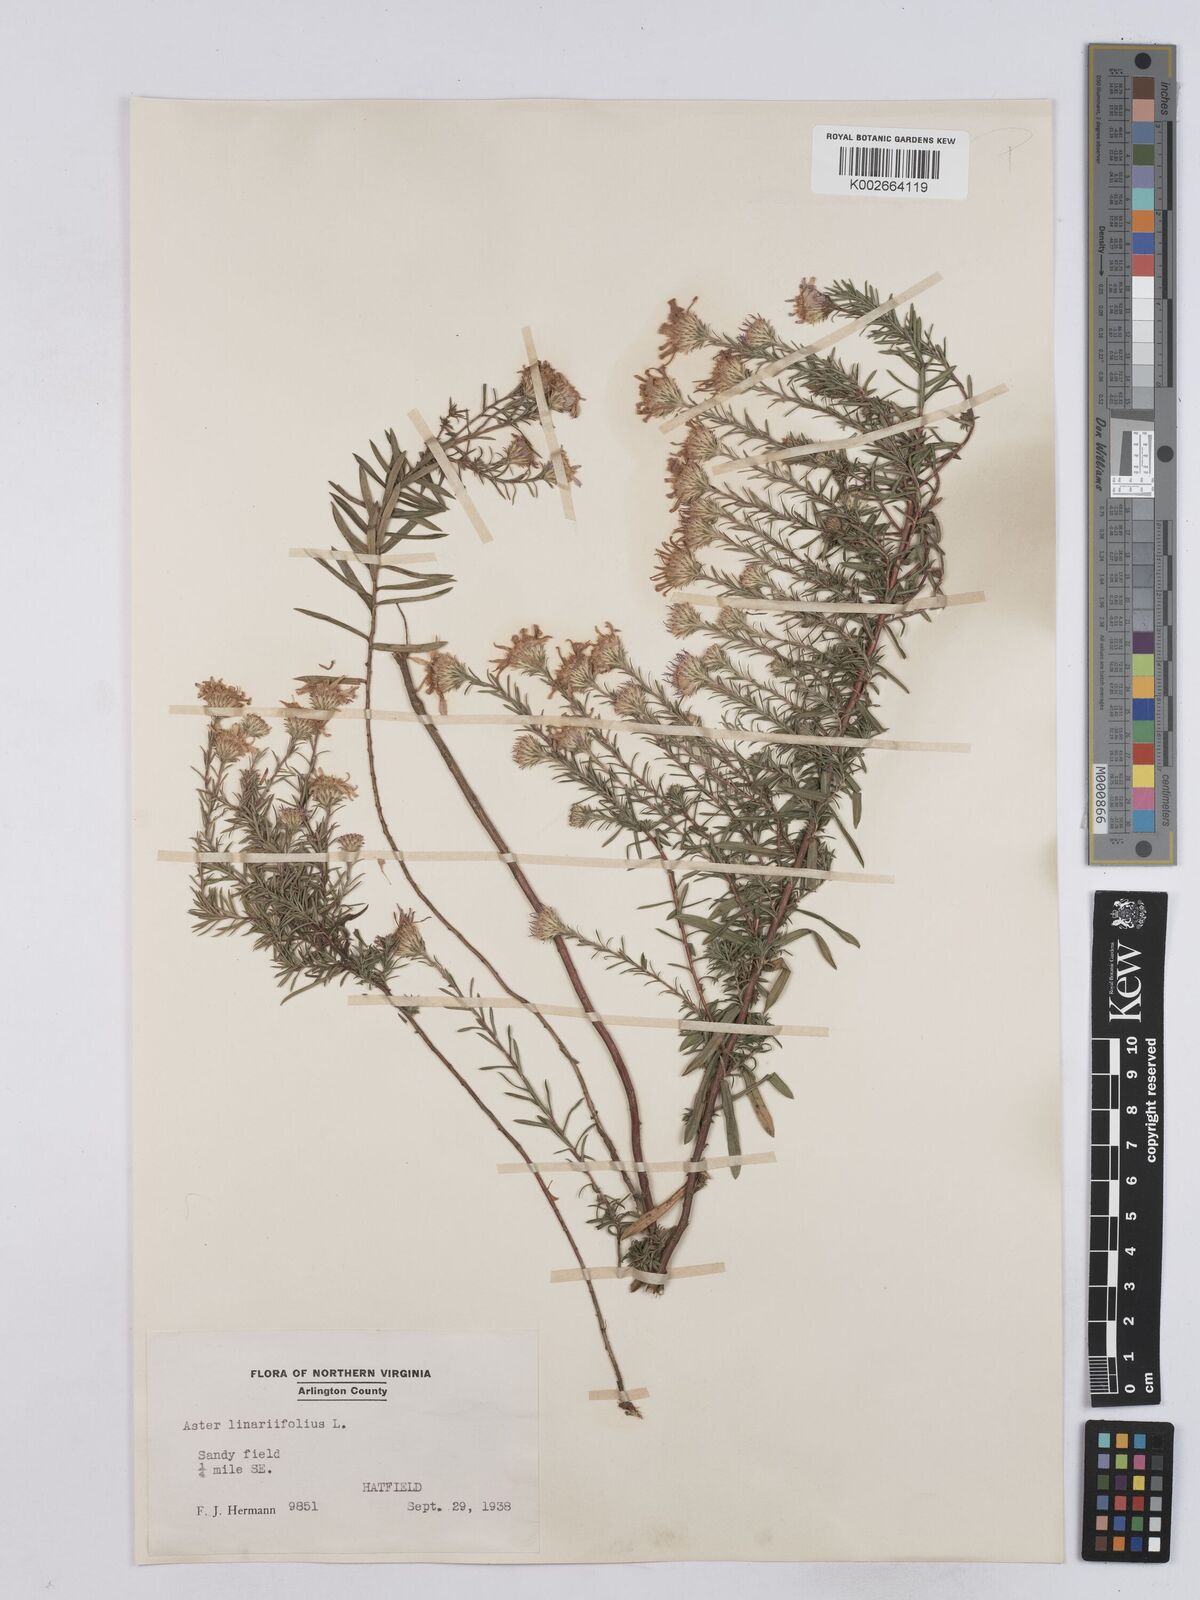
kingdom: Plantae
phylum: Tracheophyta
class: Magnoliopsida
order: Asterales
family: Asteraceae
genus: Ionactis
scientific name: Ionactis linariifolia
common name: Flax-leaf aster
